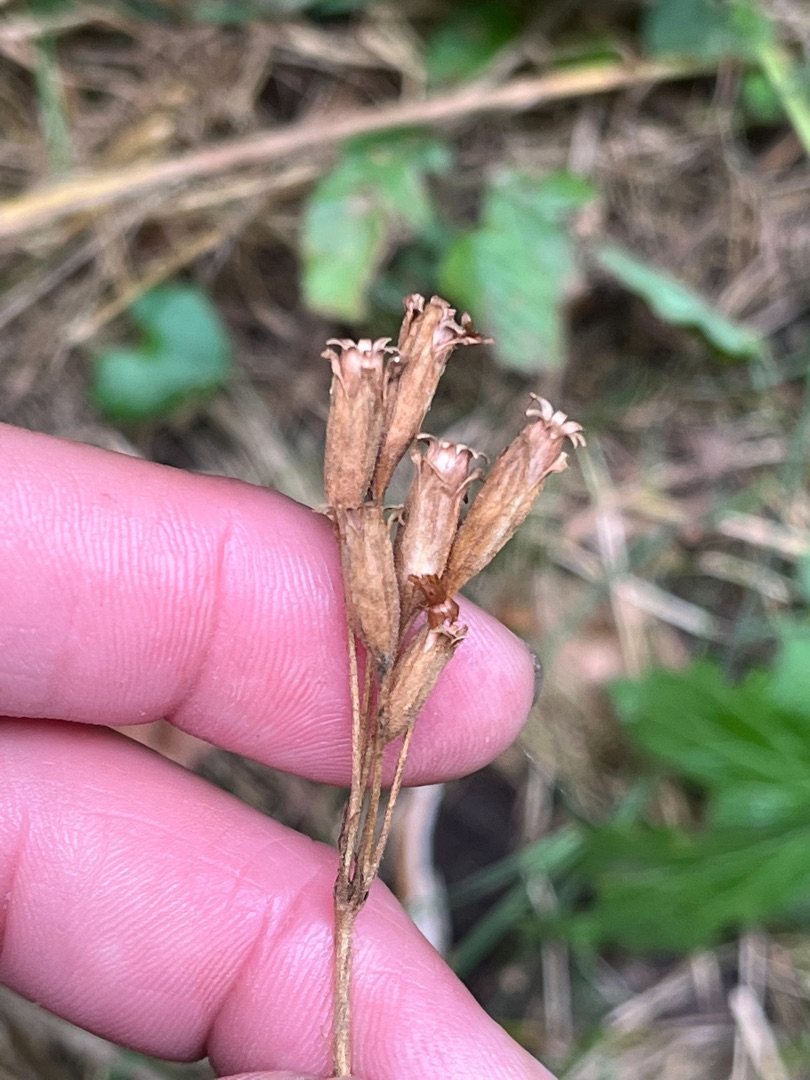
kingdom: Plantae
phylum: Tracheophyta
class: Magnoliopsida
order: Ericales
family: Primulaceae
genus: Primula
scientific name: Primula elatior
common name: Fladkravet kodriver
